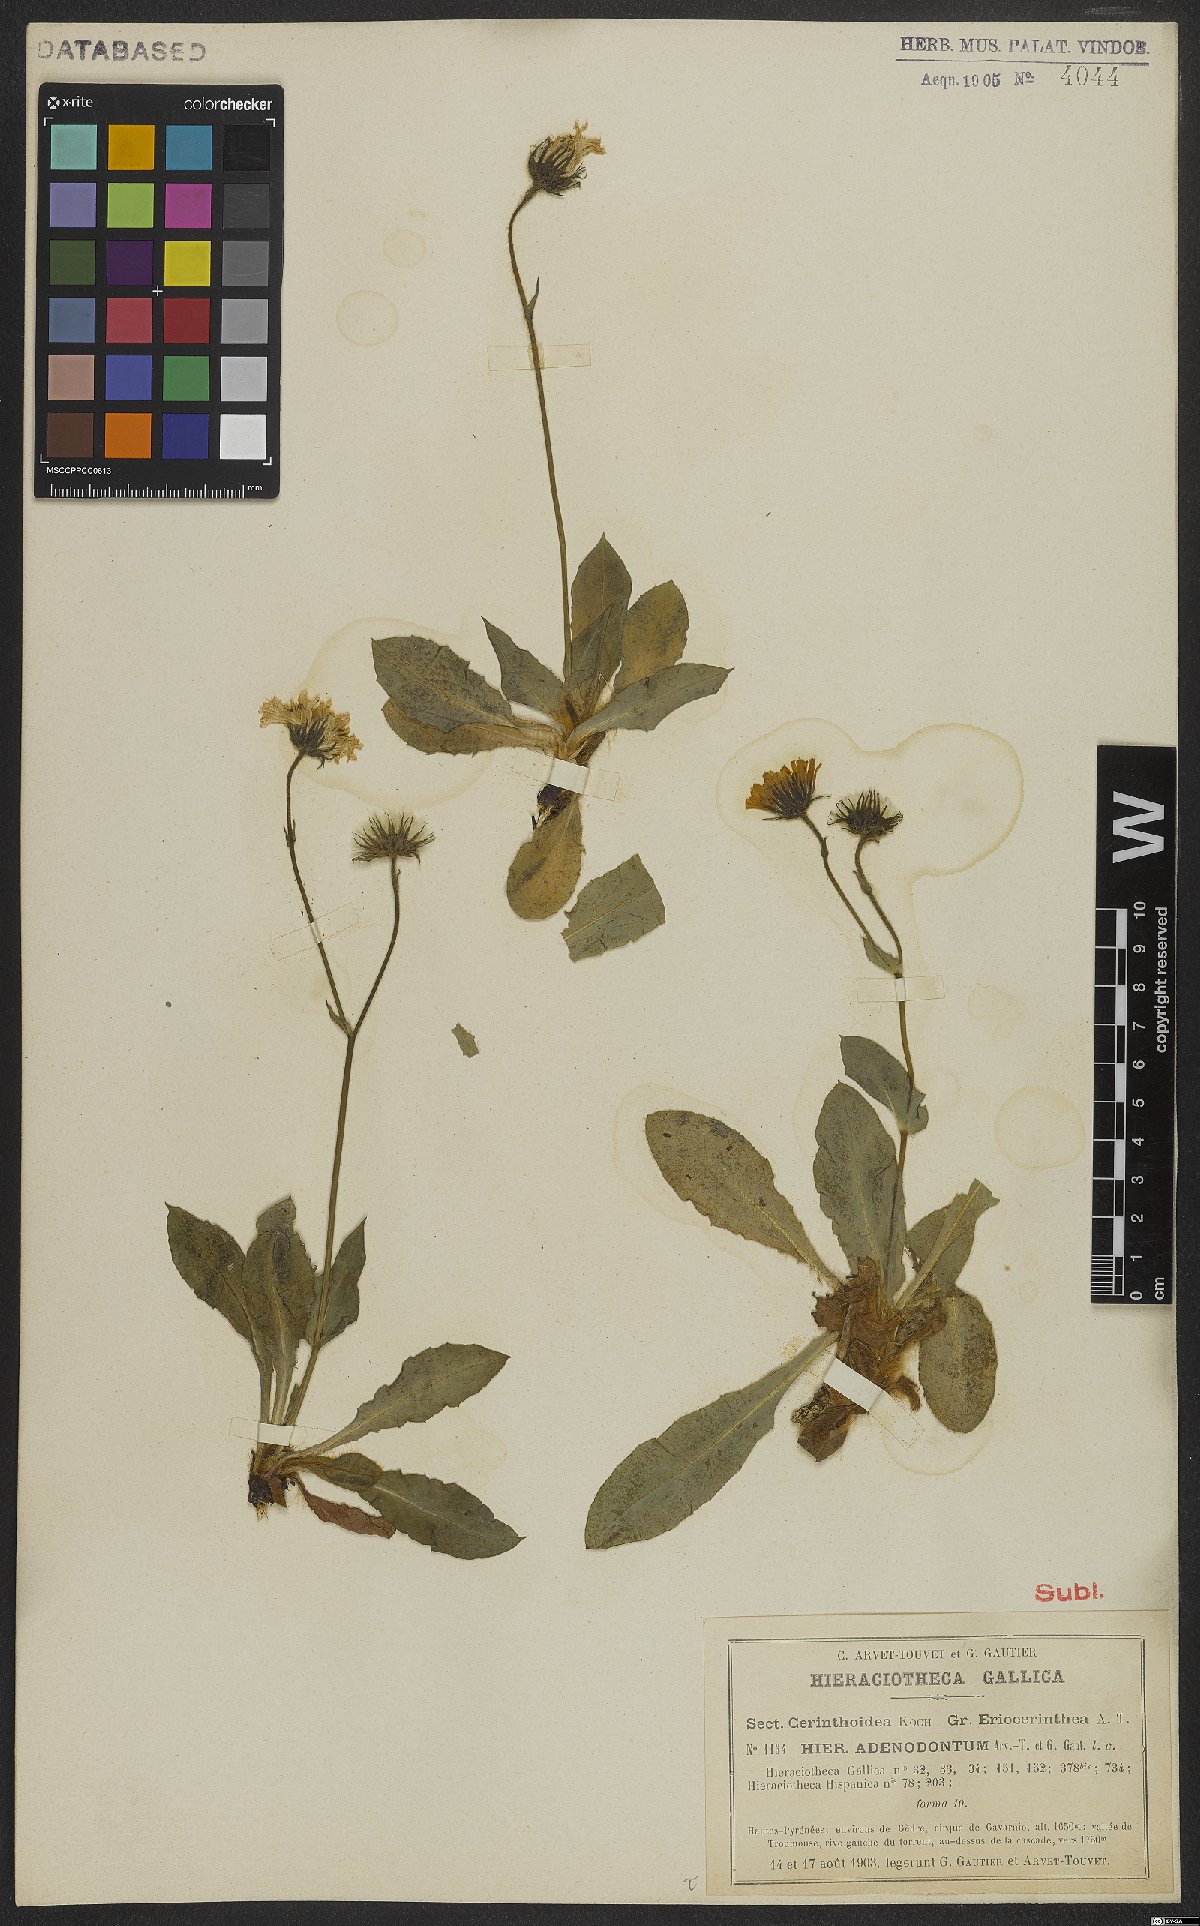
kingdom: Plantae
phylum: Tracheophyta
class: Magnoliopsida
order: Asterales
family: Asteraceae
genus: Hieracium
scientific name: Hieracium adenodontum
